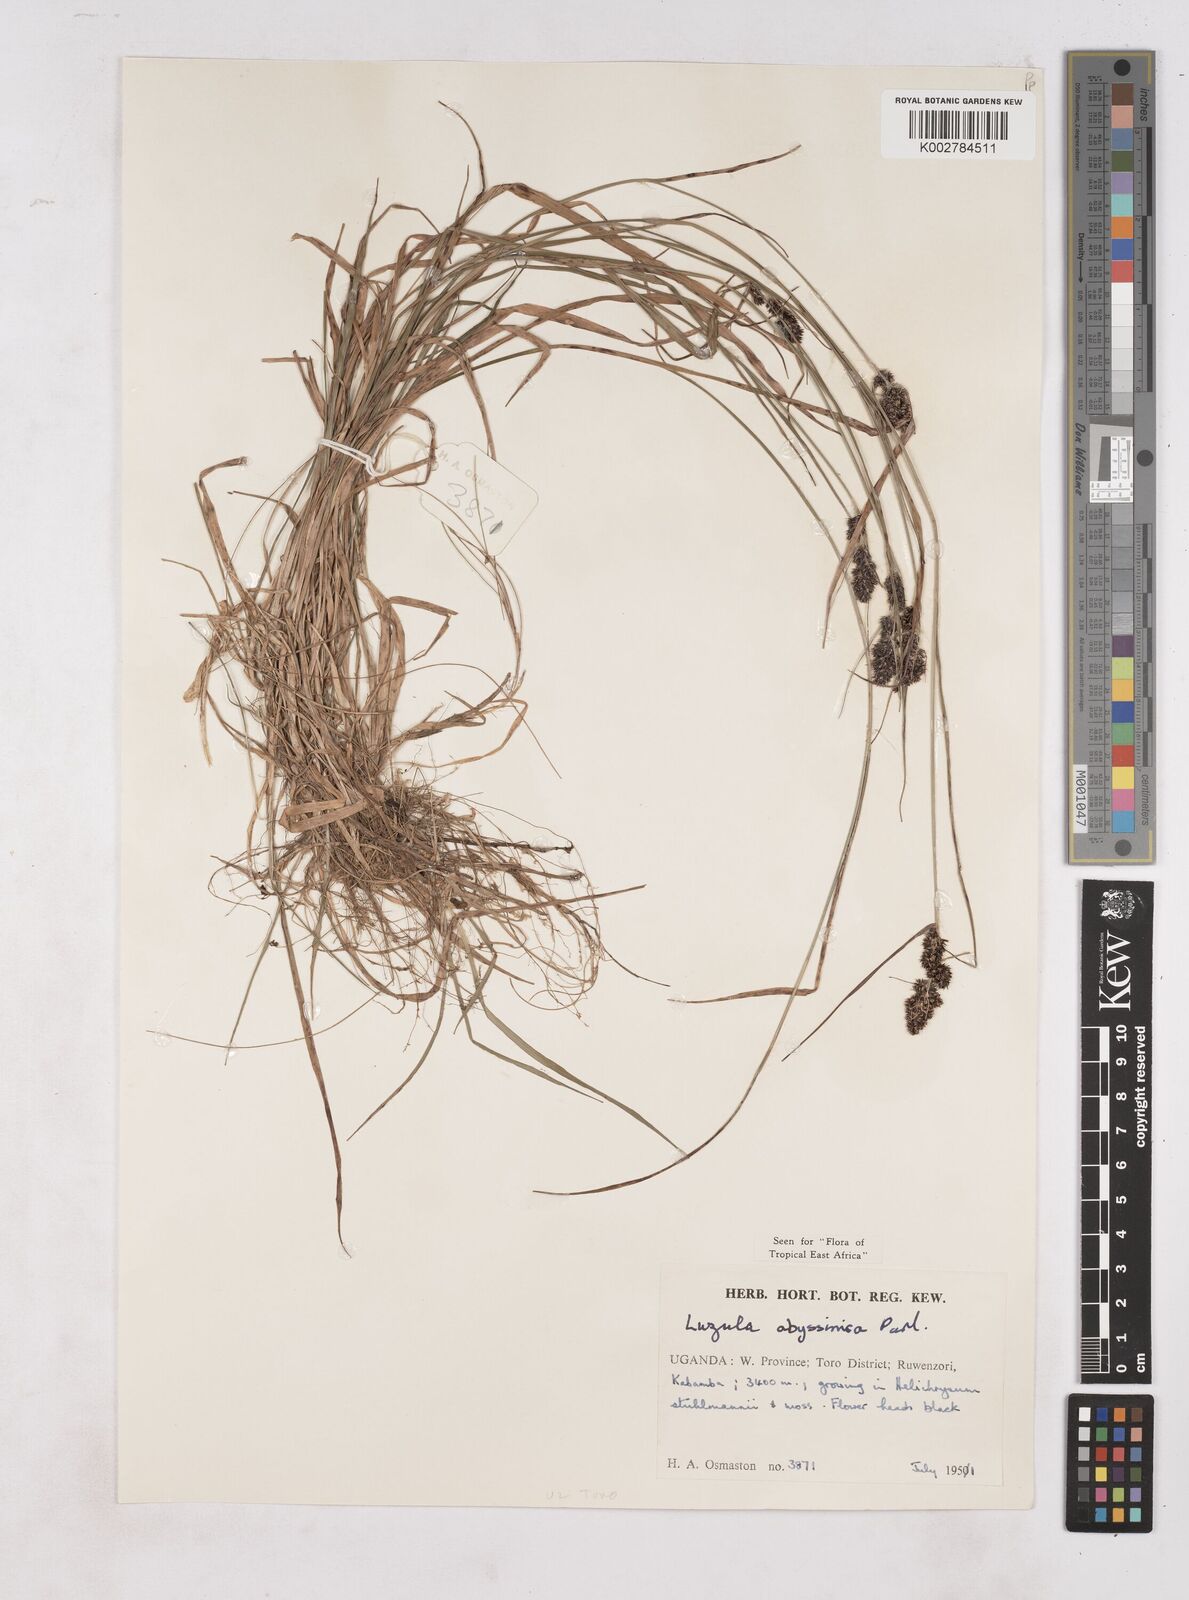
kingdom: Plantae
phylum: Tracheophyta
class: Liliopsida
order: Poales
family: Juncaceae
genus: Luzula
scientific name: Luzula abyssinica
